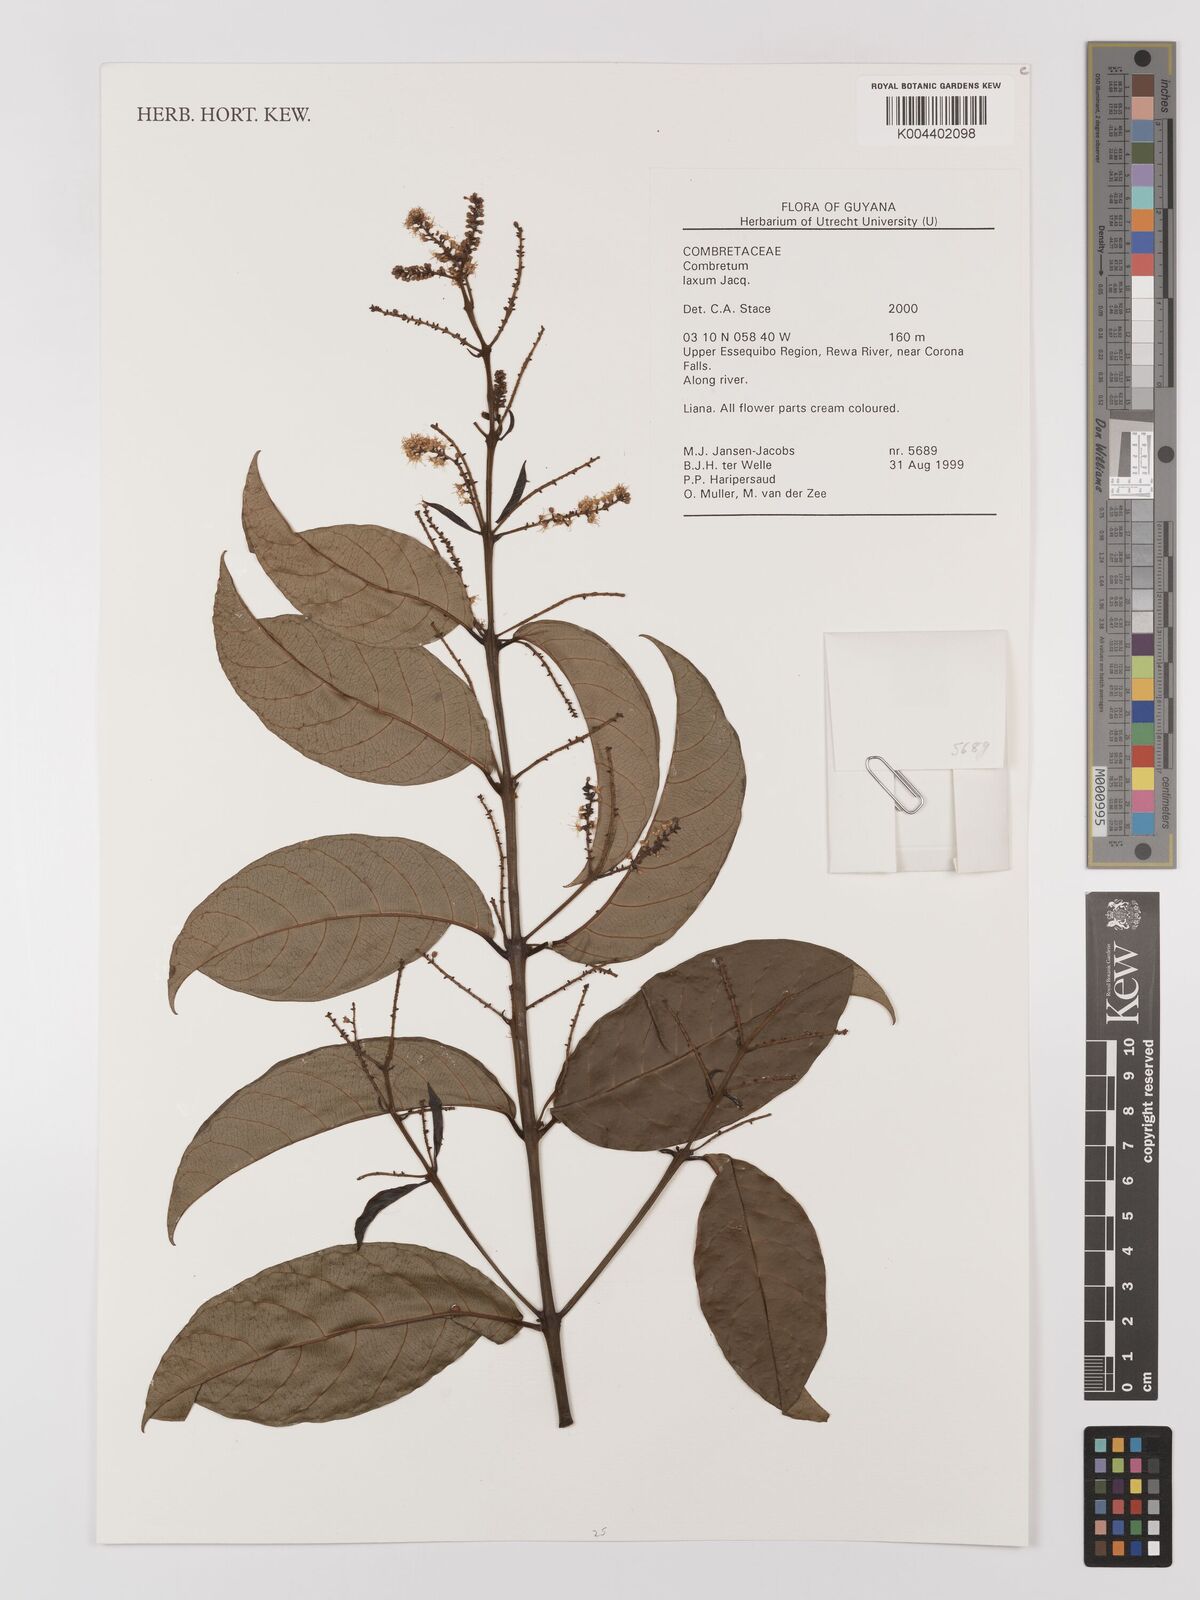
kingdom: Plantae
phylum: Tracheophyta
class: Magnoliopsida
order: Myrtales
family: Combretaceae
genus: Combretum
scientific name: Combretum
